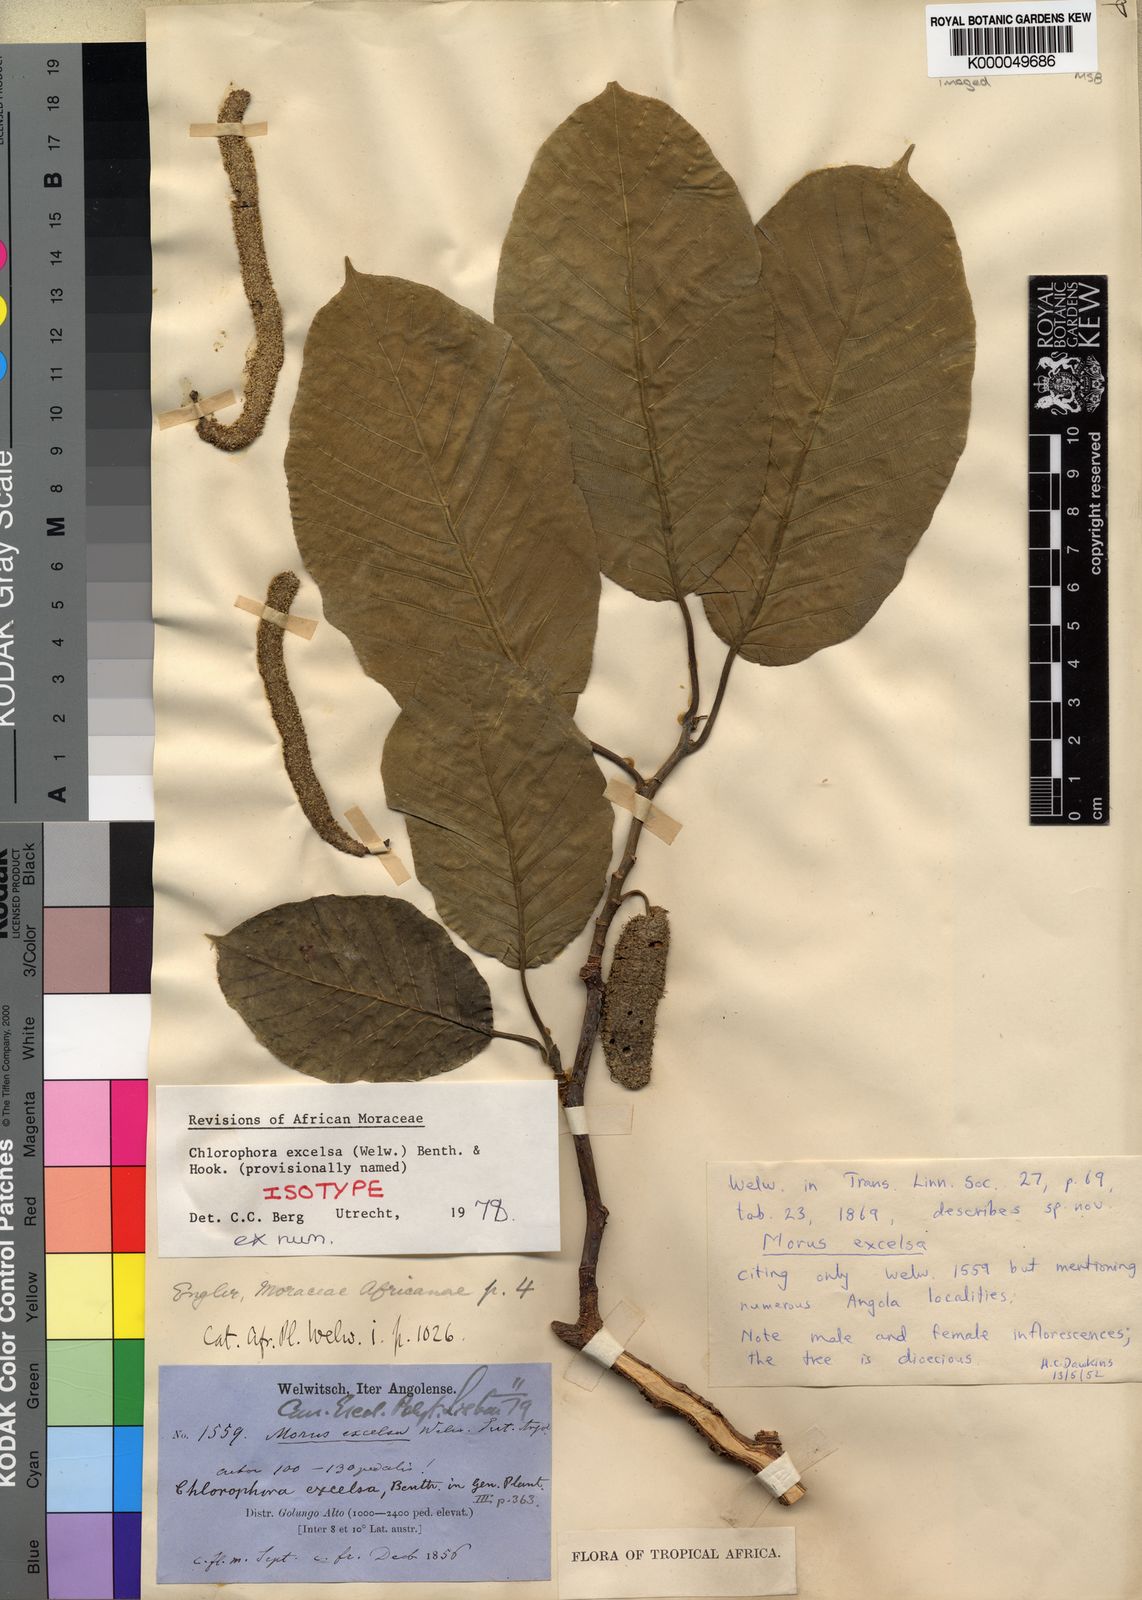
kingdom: Plantae
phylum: Tracheophyta
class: Magnoliopsida
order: Rosales
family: Moraceae
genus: Milicia
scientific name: Milicia excelsa
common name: African teak
